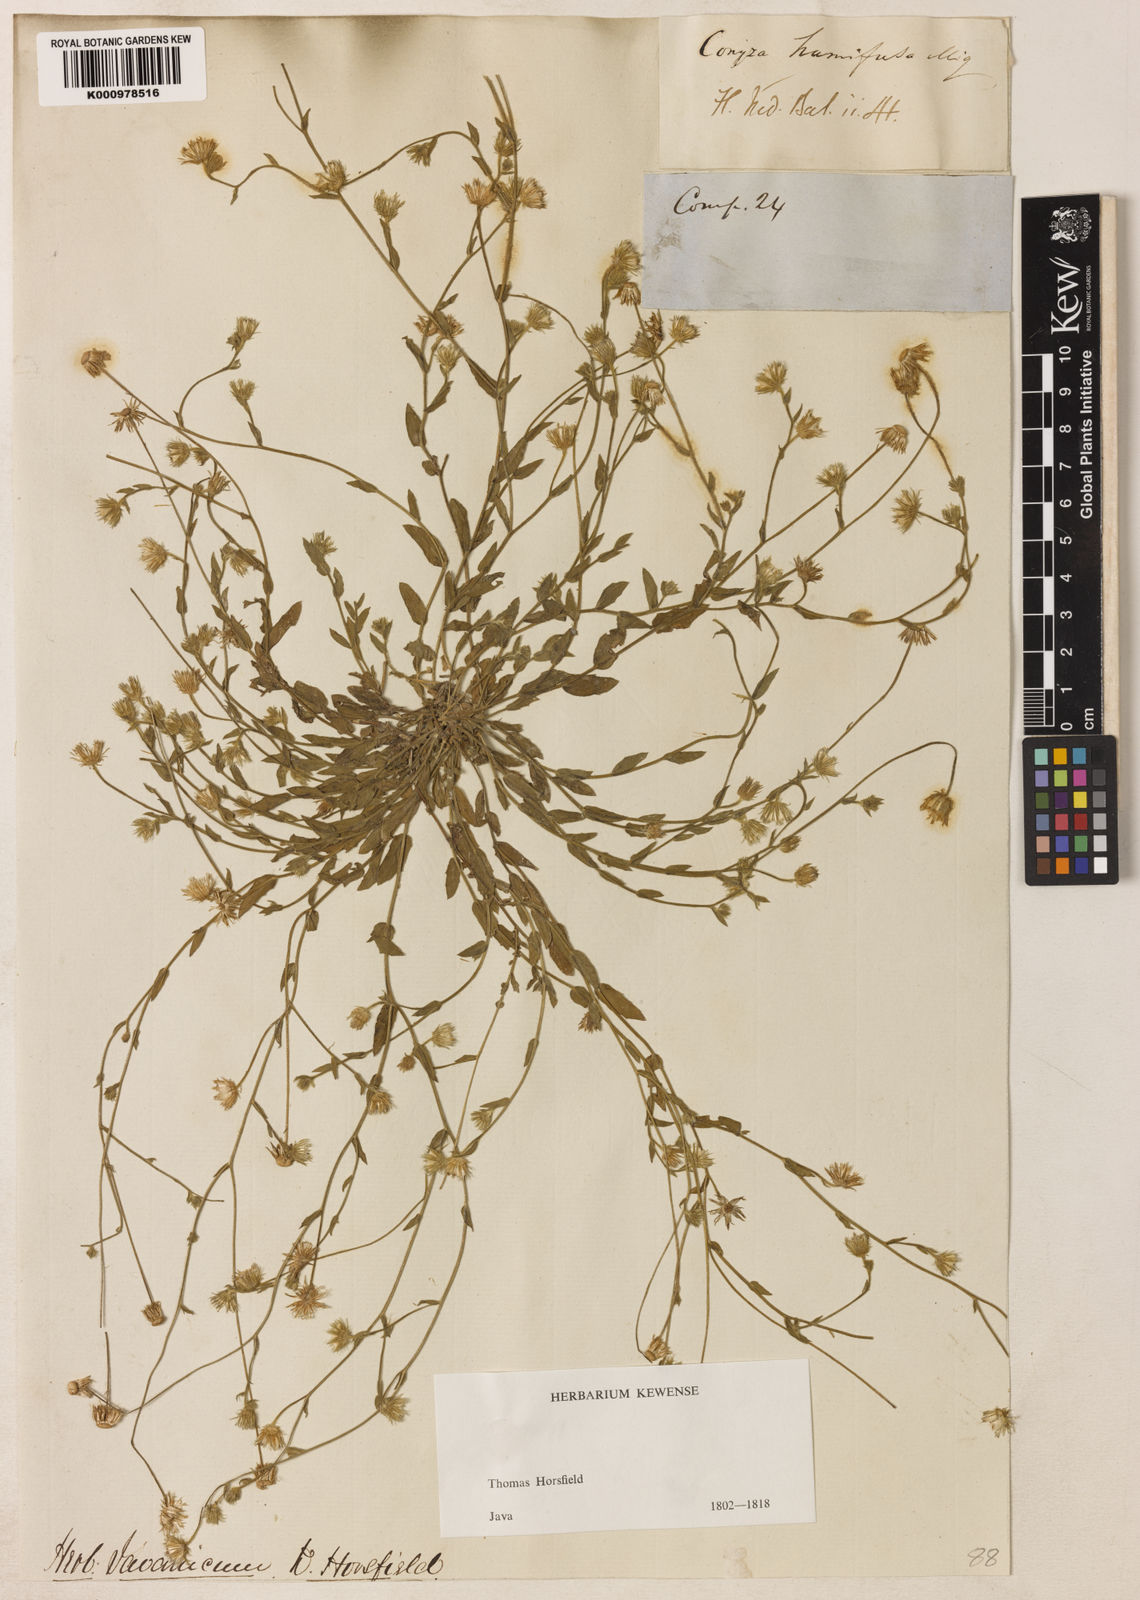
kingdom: Plantae
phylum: Tracheophyta
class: Magnoliopsida
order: Asterales
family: Asteraceae
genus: Blumea
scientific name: Blumea tenella
